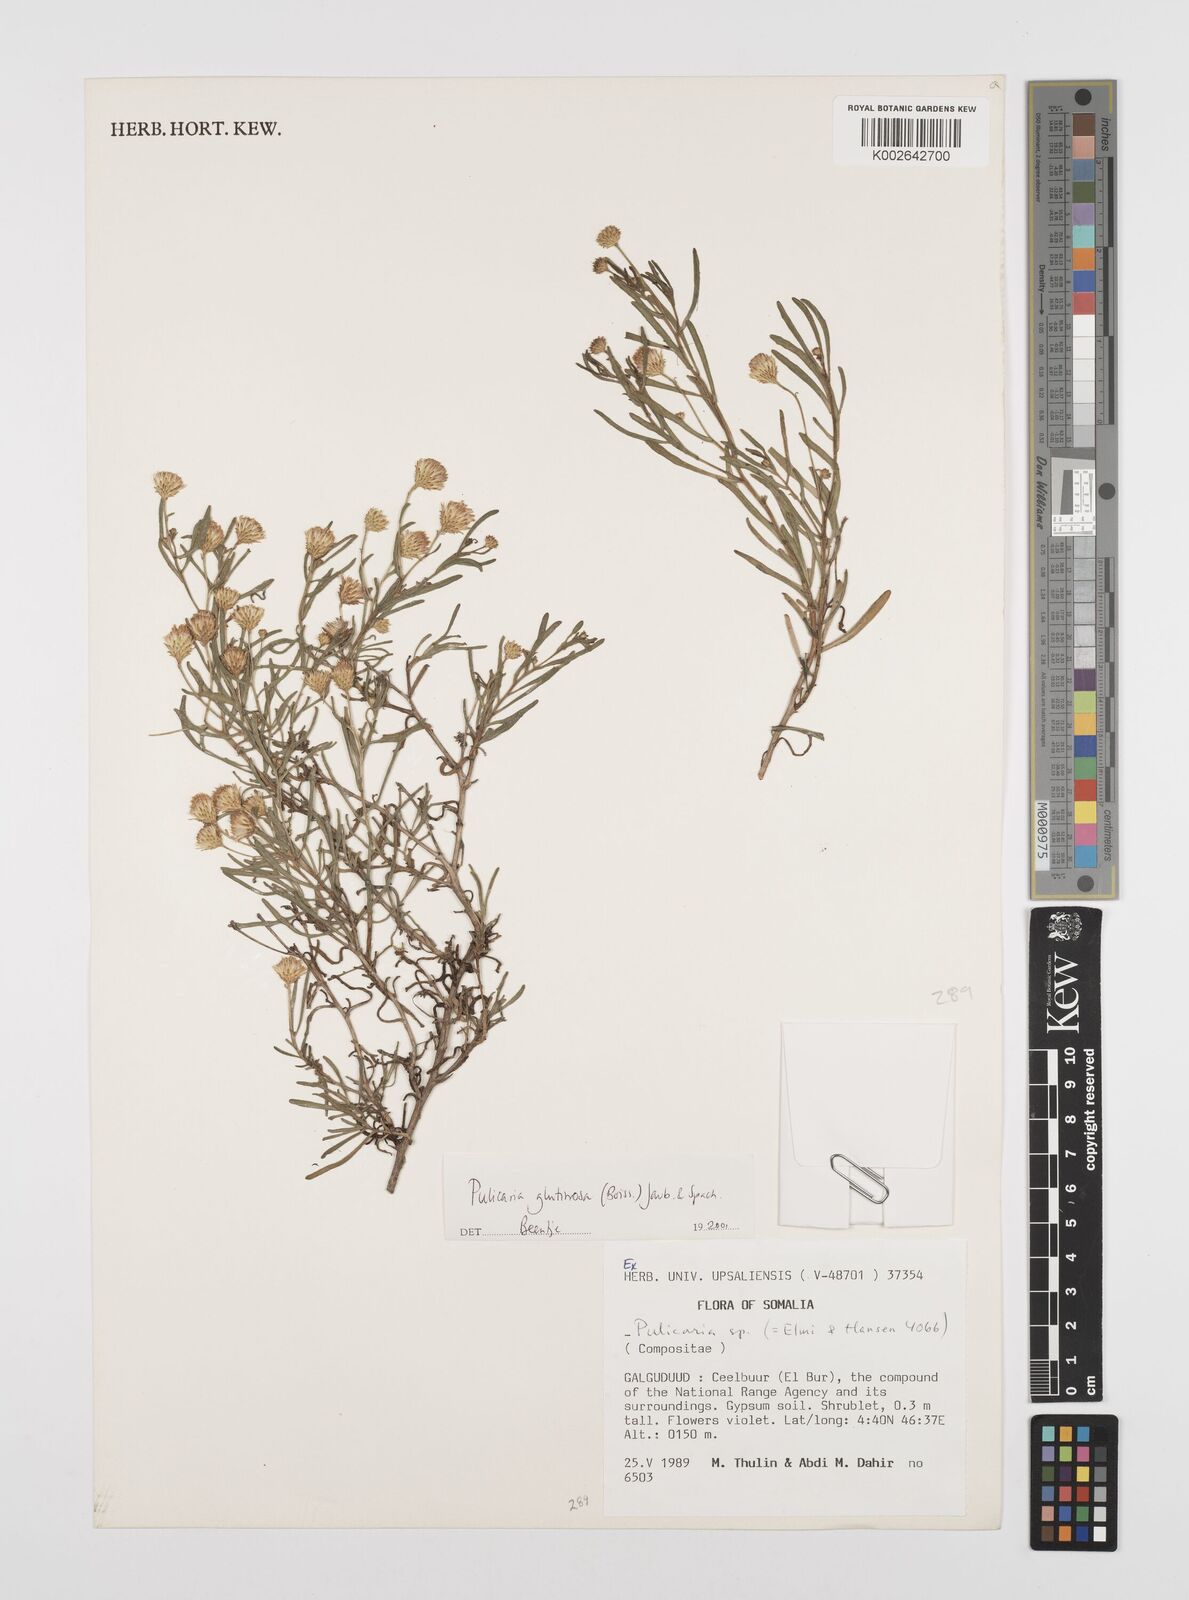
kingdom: Plantae
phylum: Tracheophyta
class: Magnoliopsida
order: Asterales
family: Asteraceae
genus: Pulicaria
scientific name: Pulicaria glutinosa
